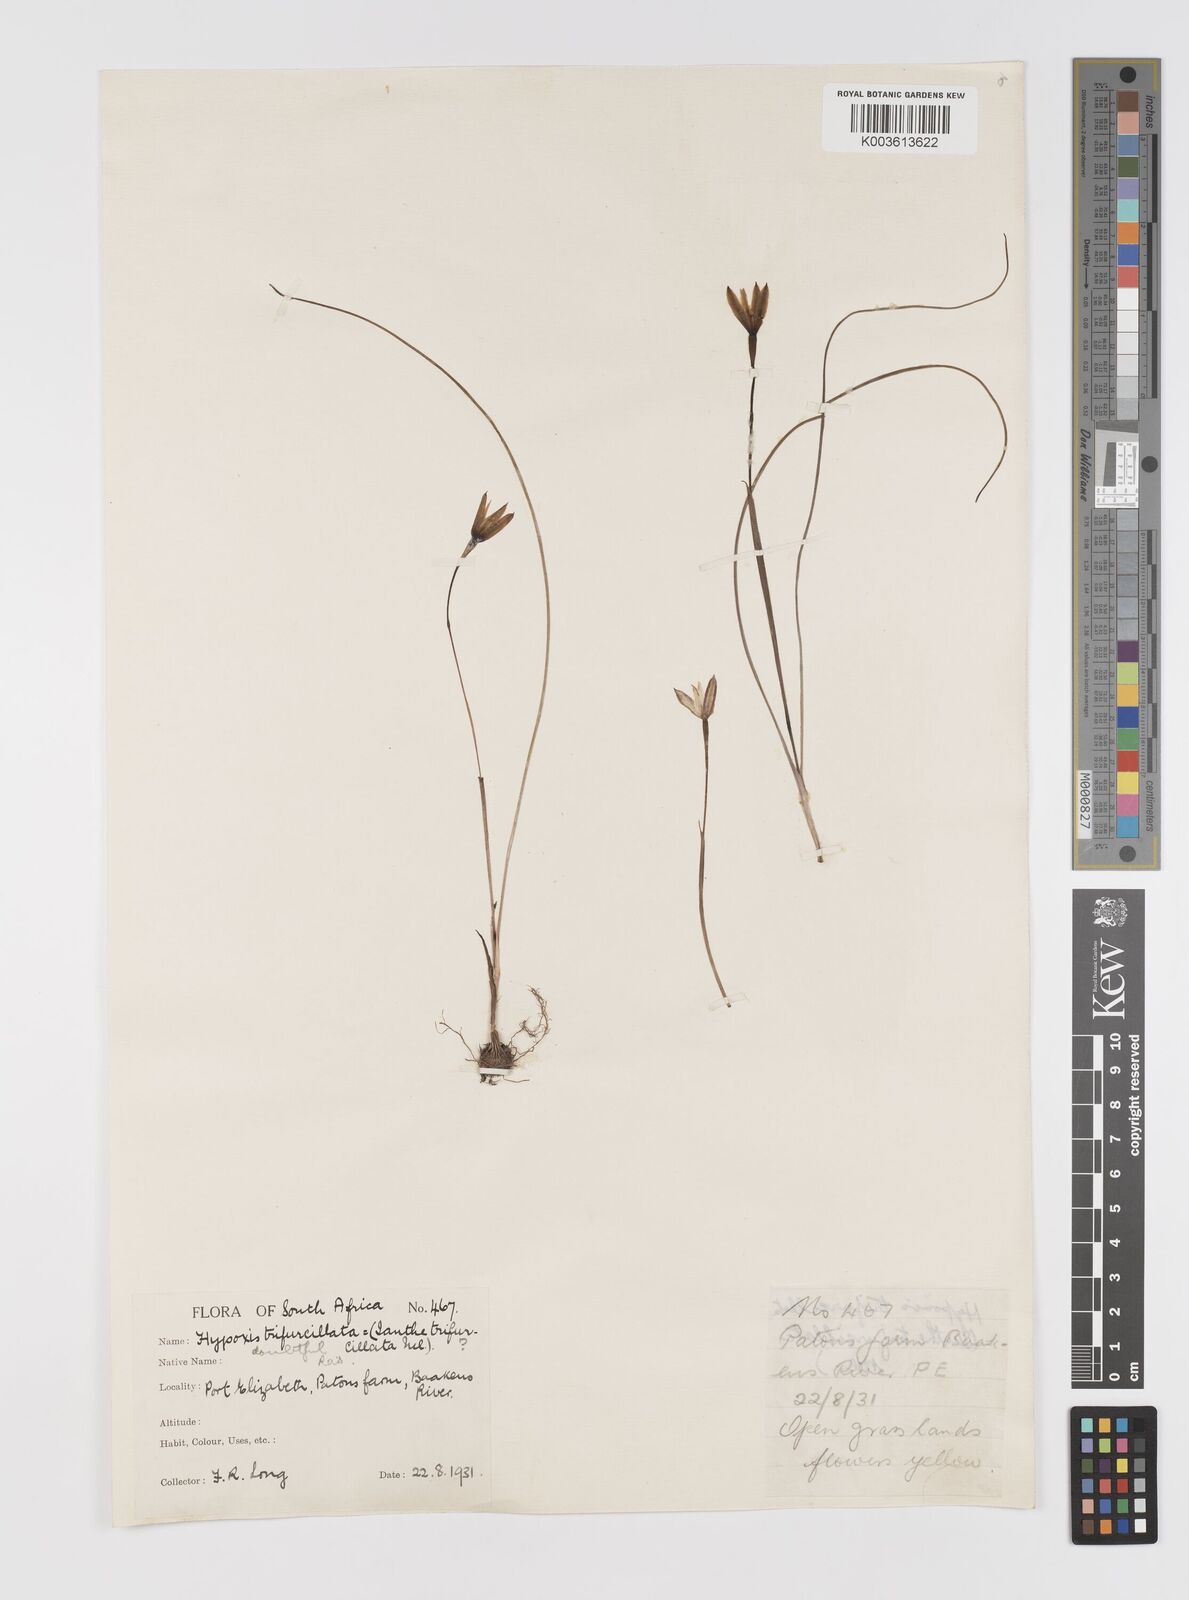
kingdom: Plantae
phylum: Tracheophyta
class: Liliopsida
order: Asparagales
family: Hypoxidaceae
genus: Pauridia
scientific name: Pauridia trifurcillata
